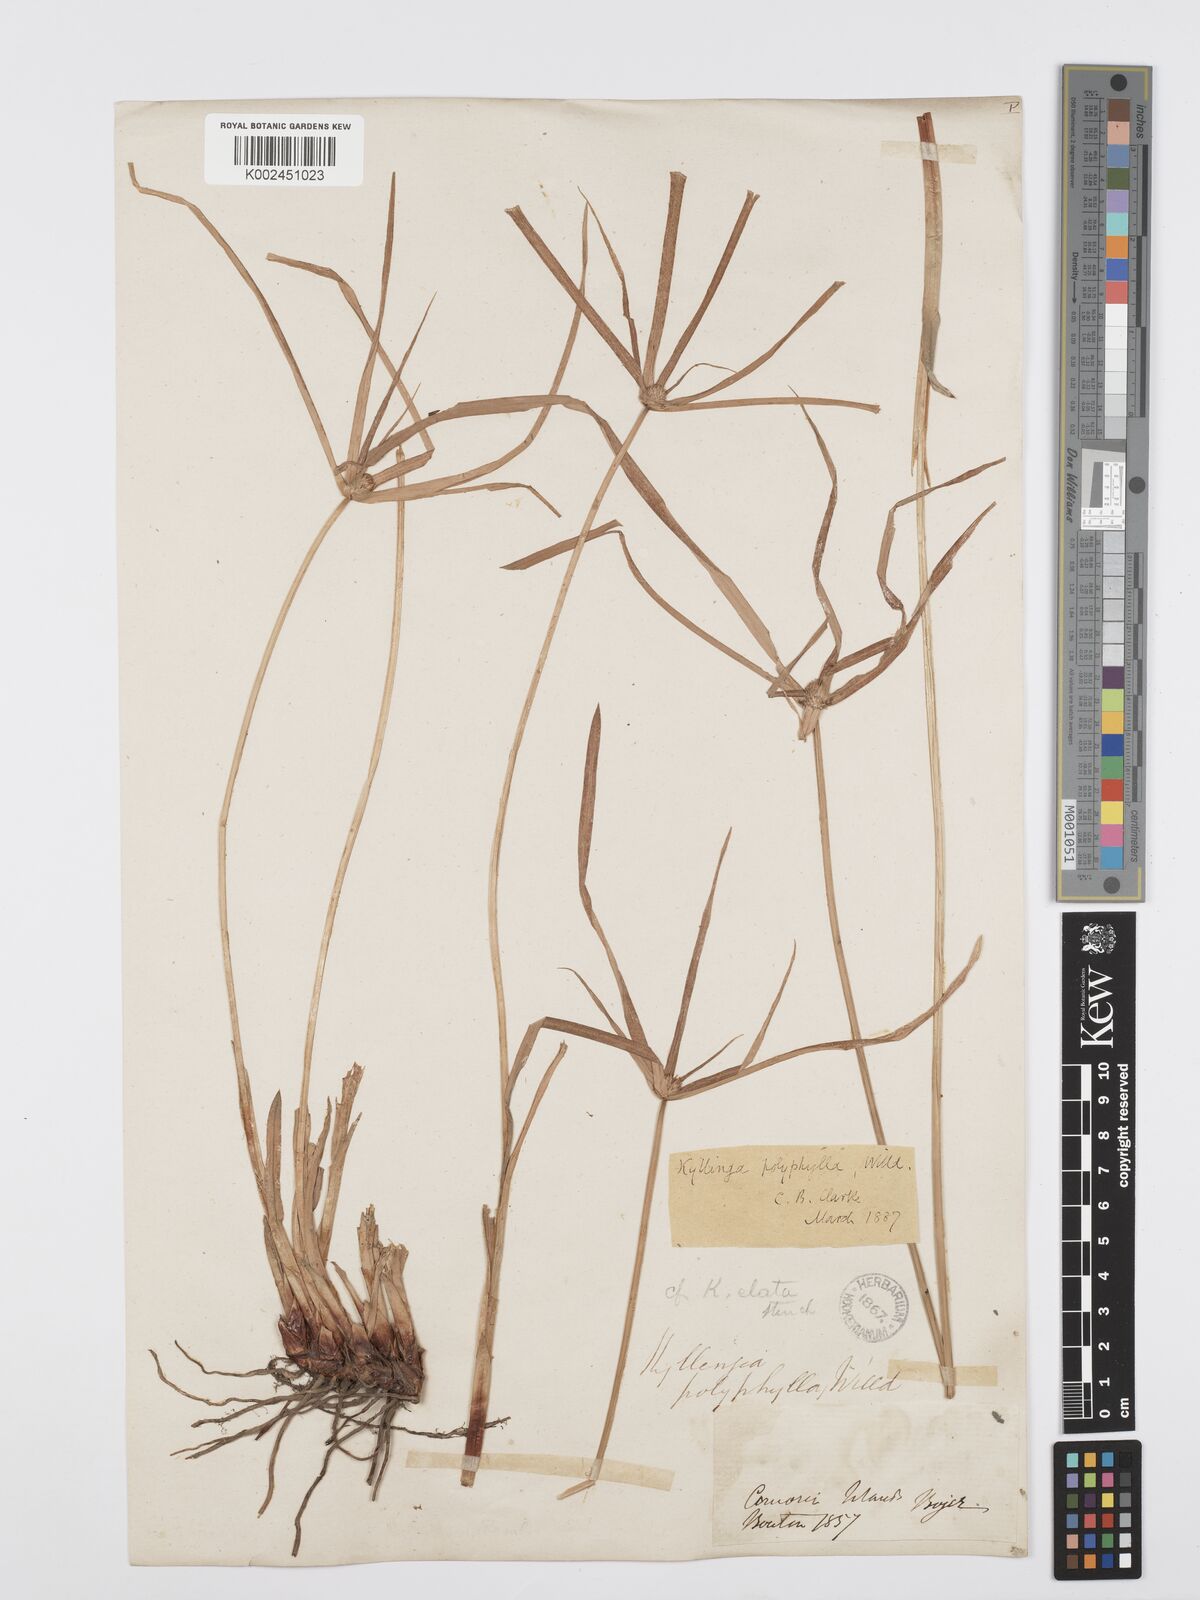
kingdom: Plantae
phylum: Tracheophyta
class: Liliopsida
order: Poales
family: Cyperaceae
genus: Cyperus
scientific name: Cyperus bulbosus
